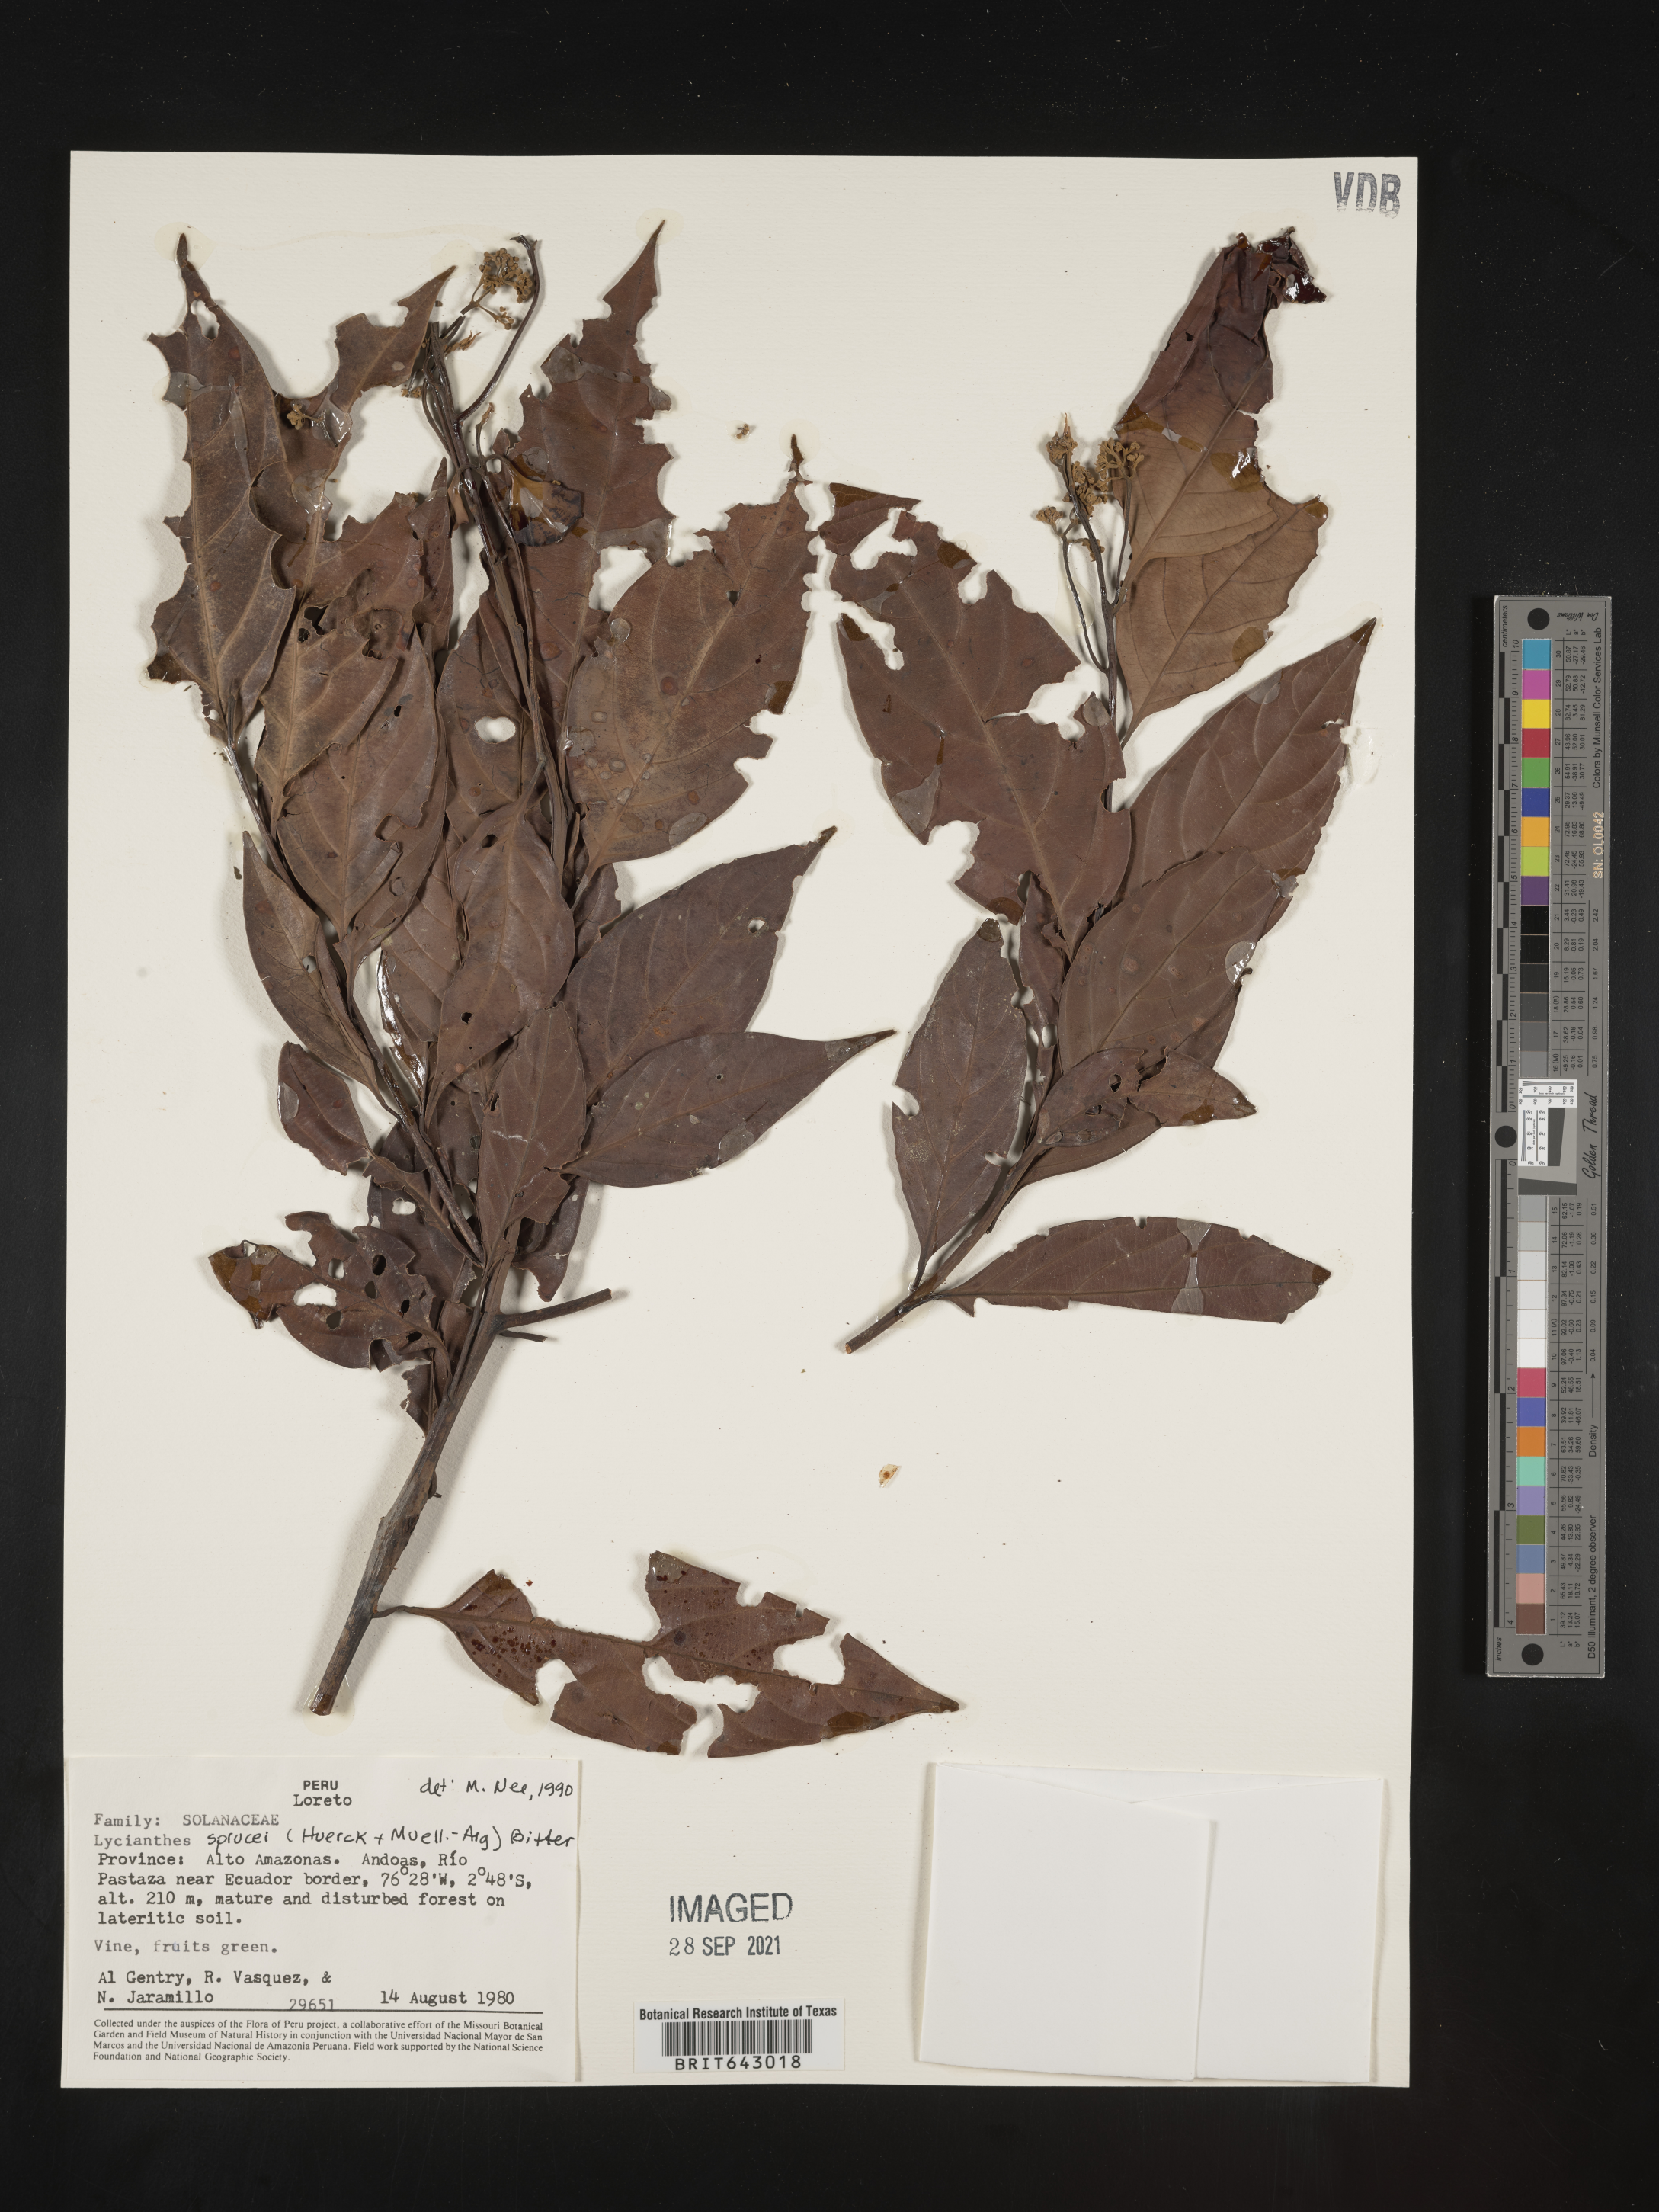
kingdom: Plantae
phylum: Tracheophyta
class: Magnoliopsida
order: Solanales
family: Solanaceae
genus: Lycianthes
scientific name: Lycianthes
